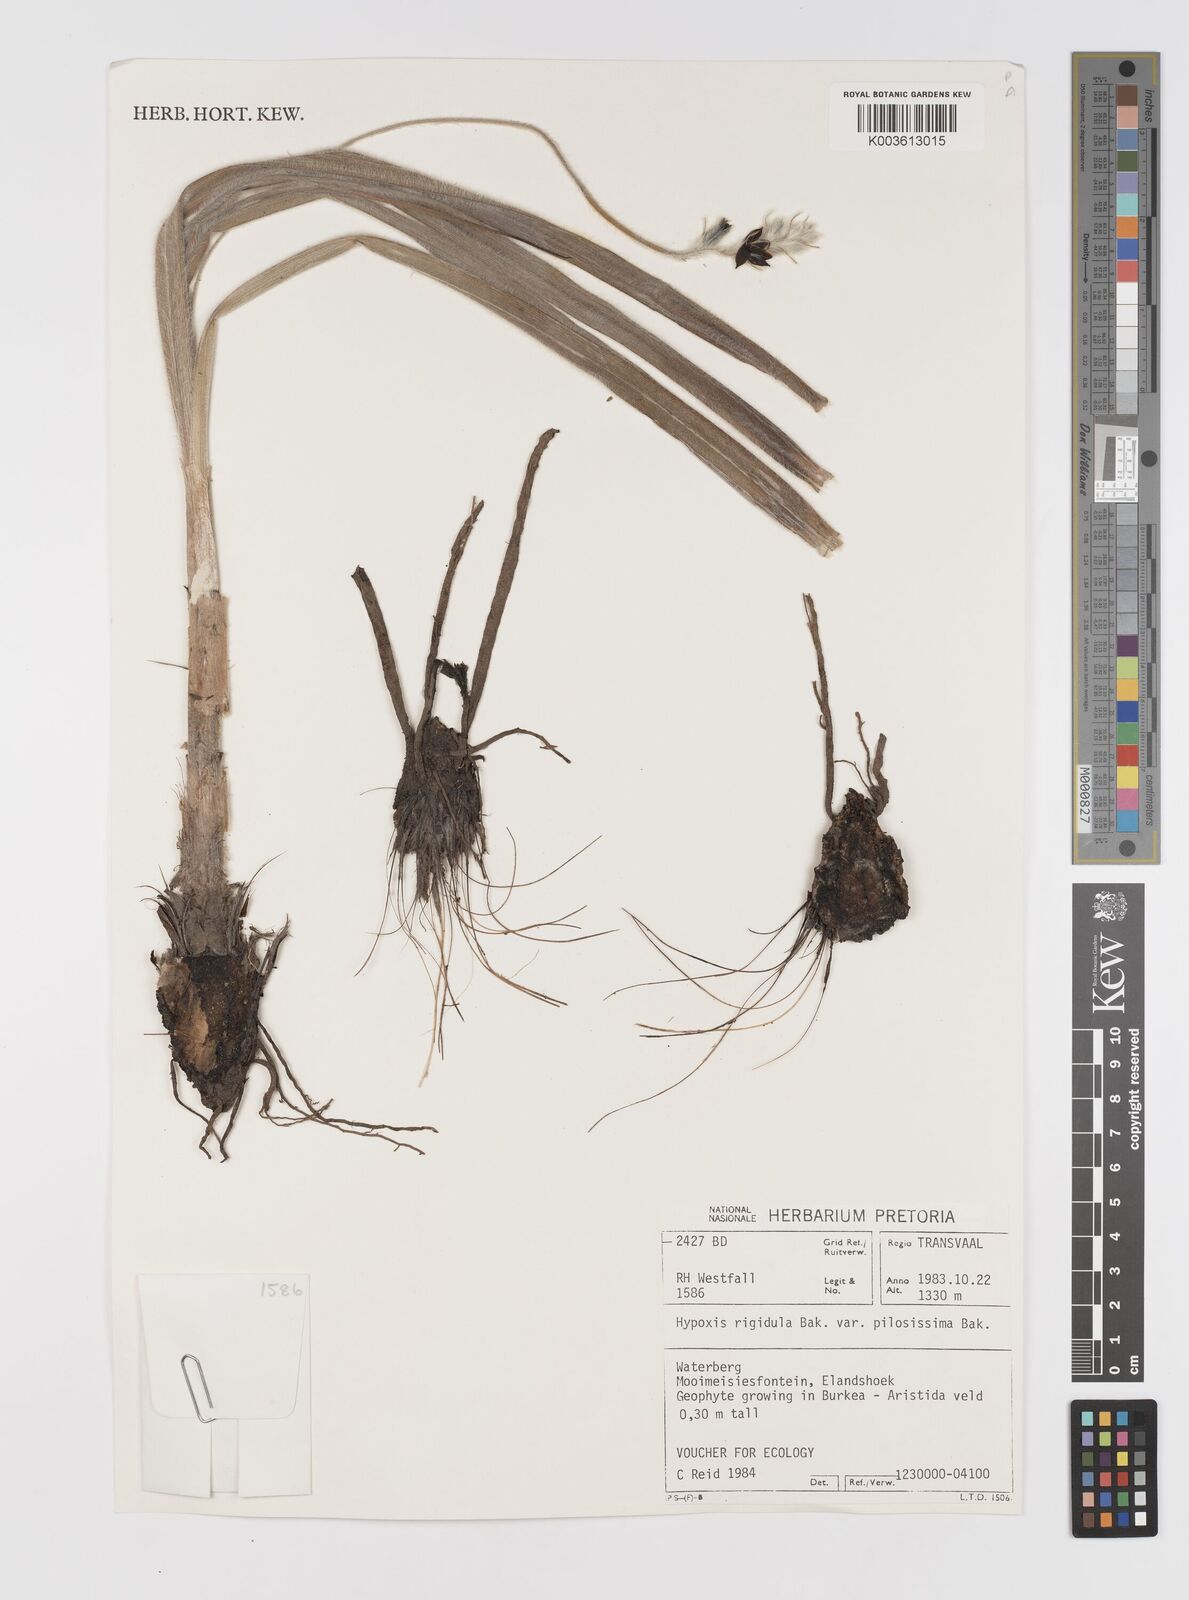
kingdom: Plantae
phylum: Tracheophyta
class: Liliopsida
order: Asparagales
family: Hypoxidaceae
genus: Hypoxis
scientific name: Hypoxis rigidula
